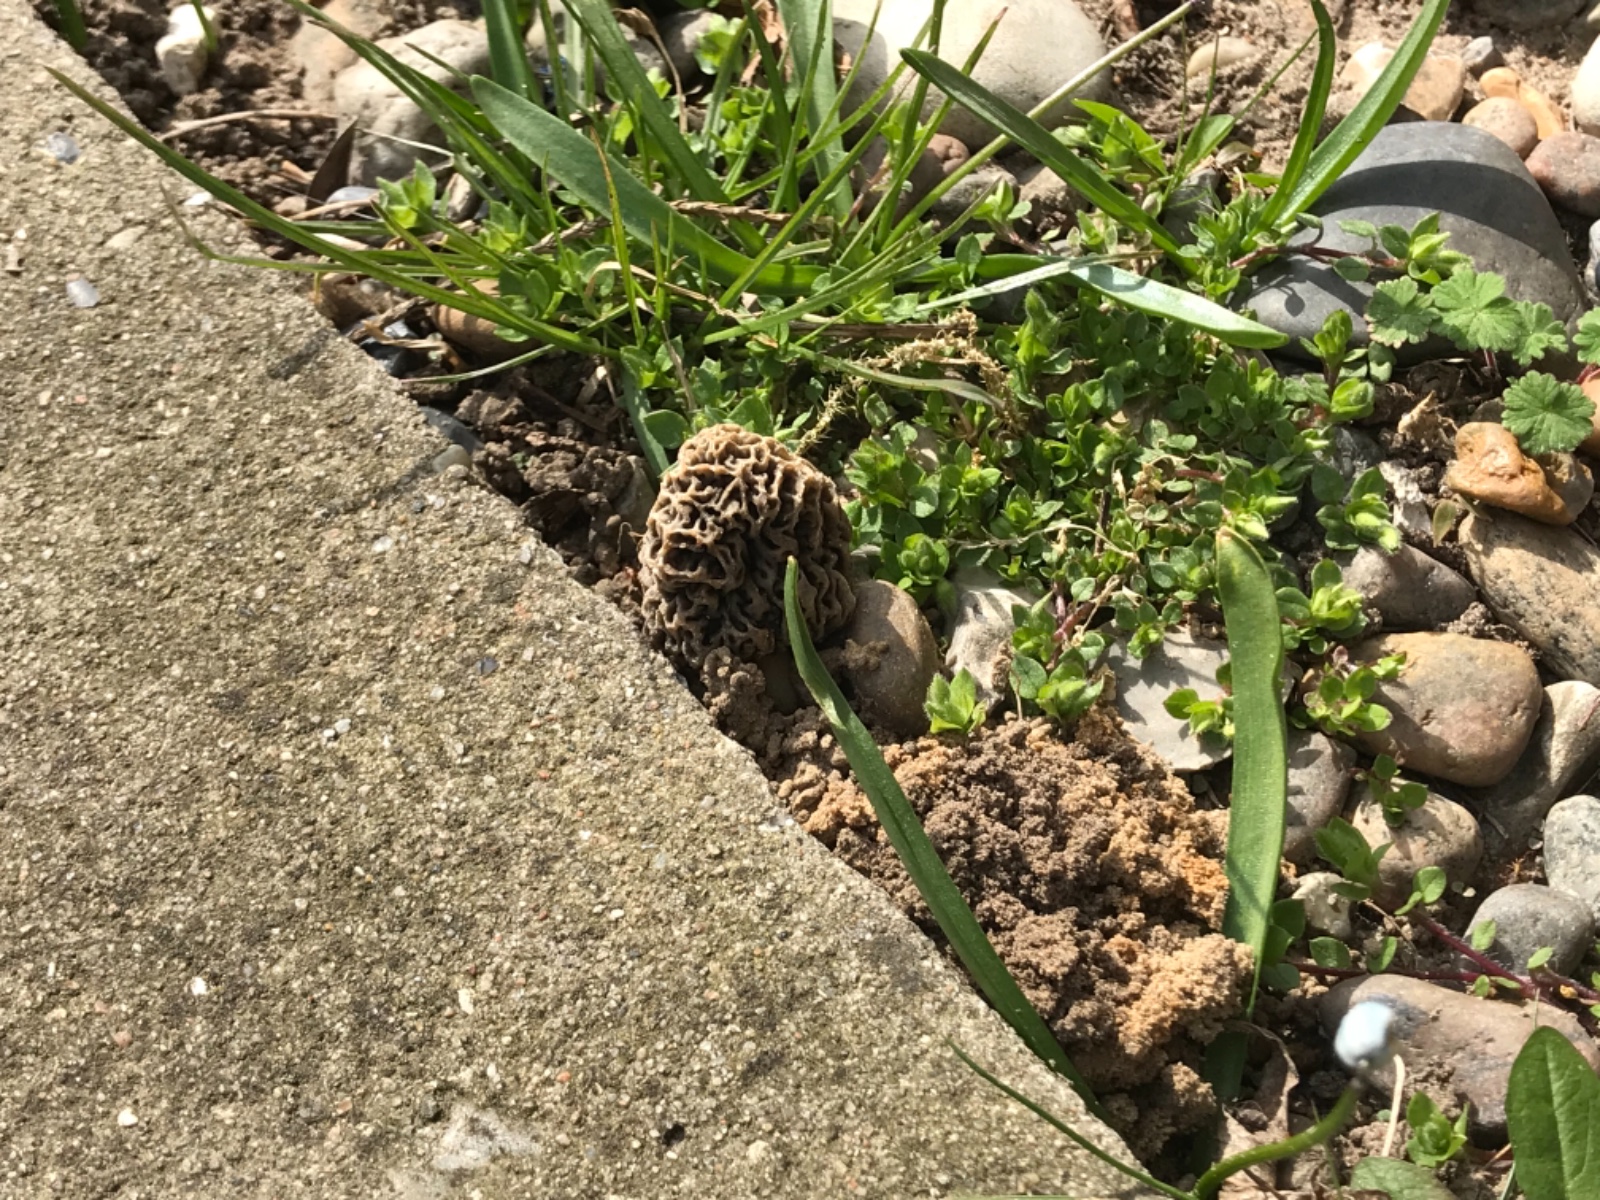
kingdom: Fungi
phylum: Ascomycota
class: Pezizomycetes
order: Pezizales
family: Morchellaceae
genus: Morchella
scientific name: Morchella esculenta
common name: almindelig morkel
